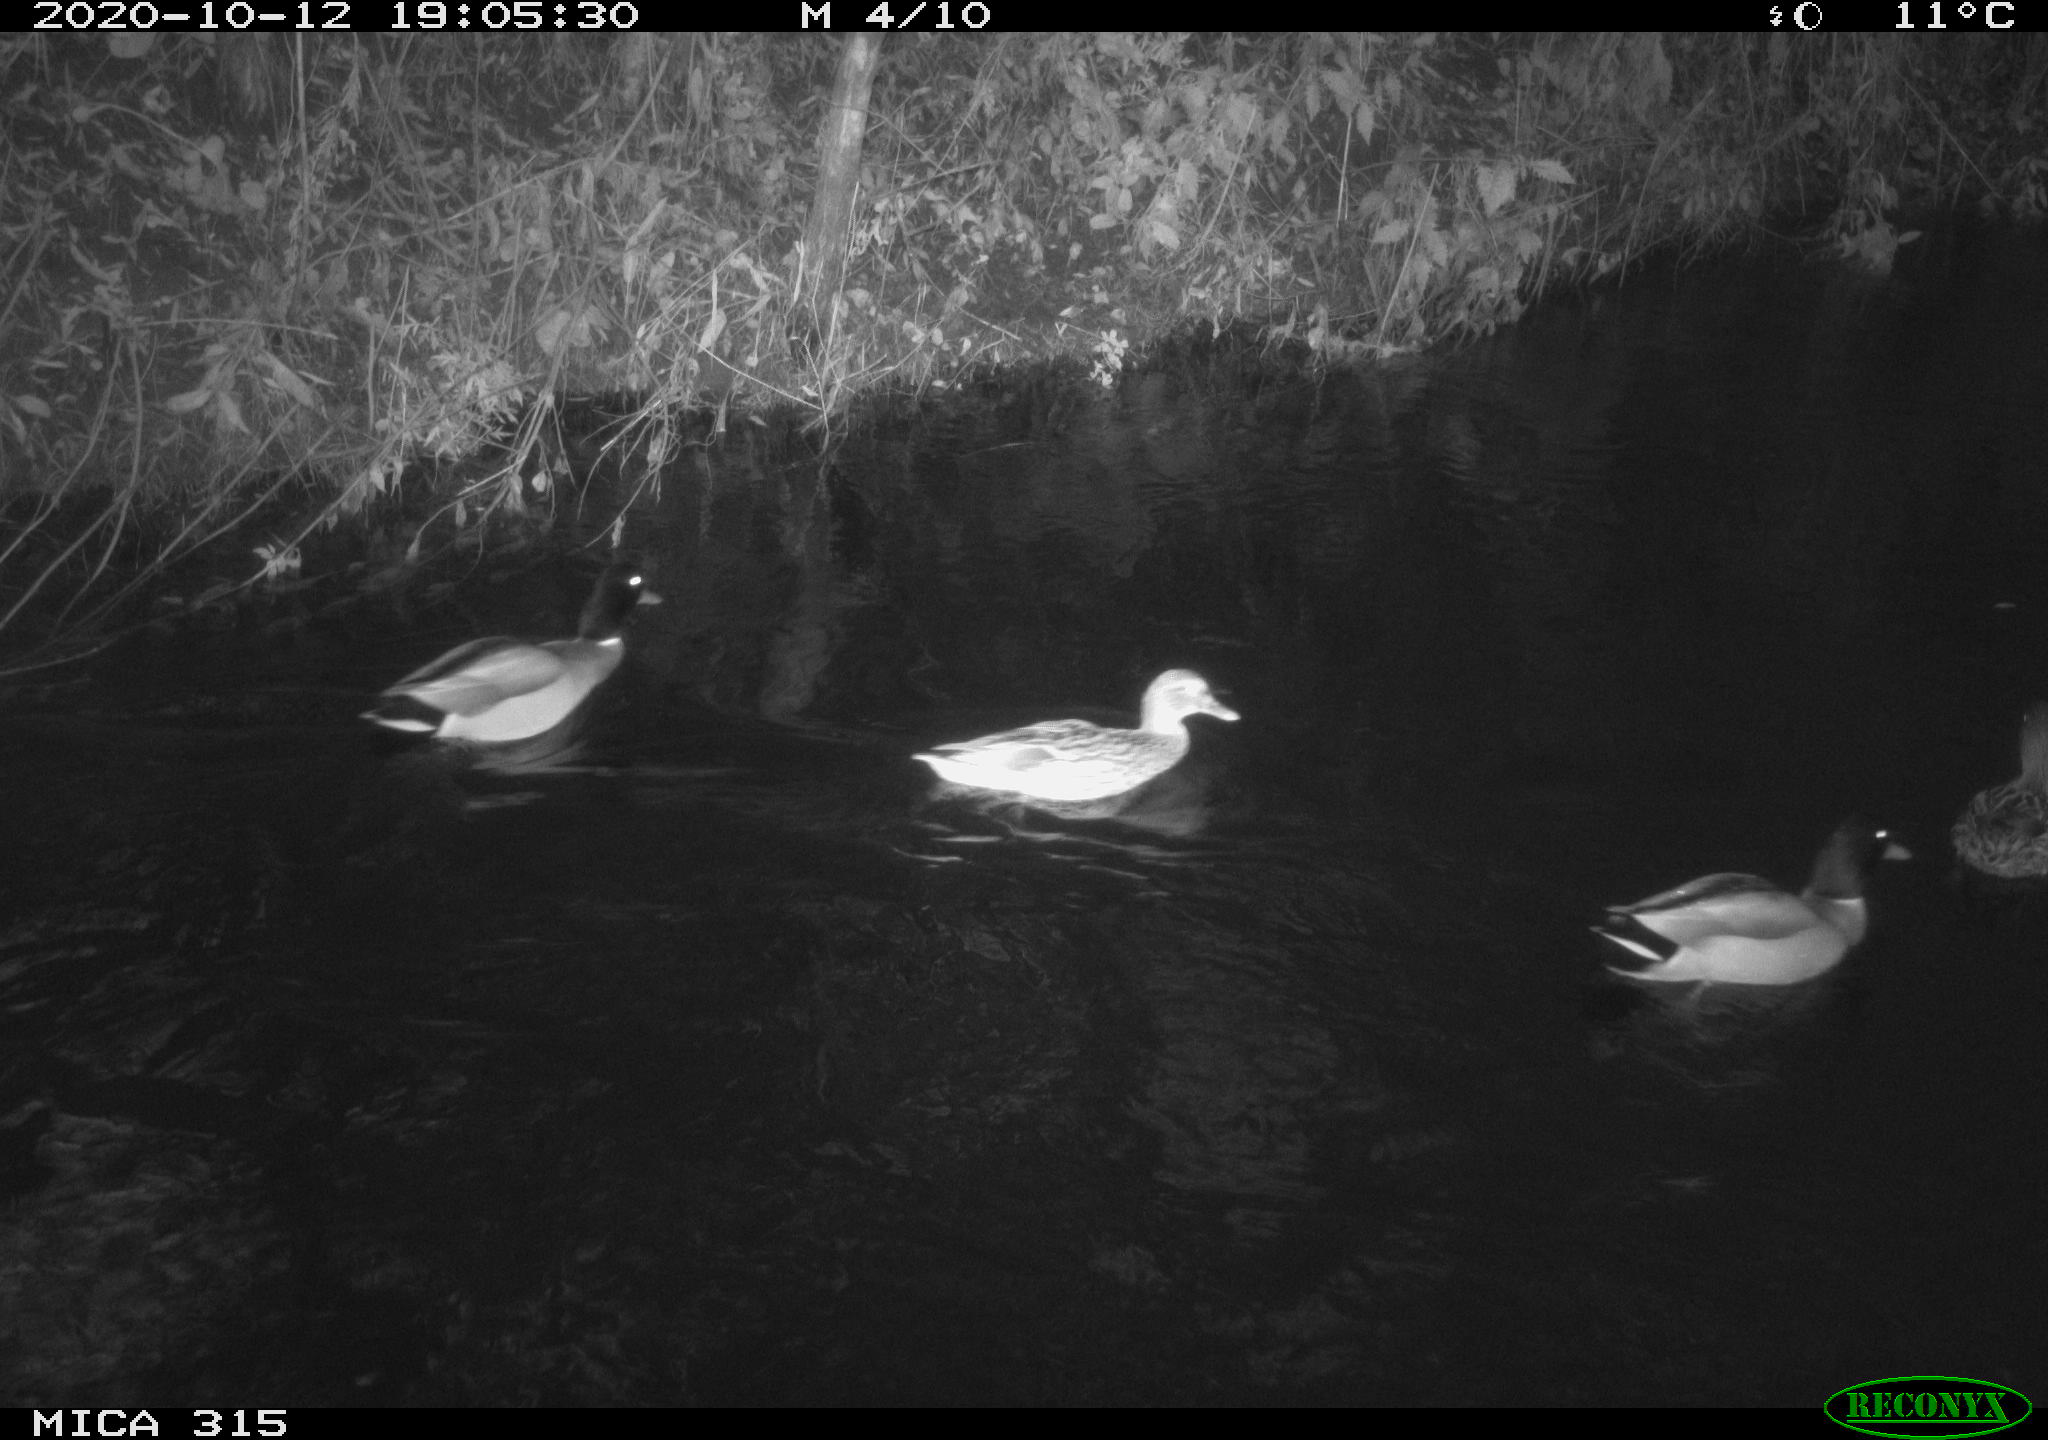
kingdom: Animalia
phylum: Chordata
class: Aves
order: Anseriformes
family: Anatidae
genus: Anas
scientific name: Anas platyrhynchos
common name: Mallard
